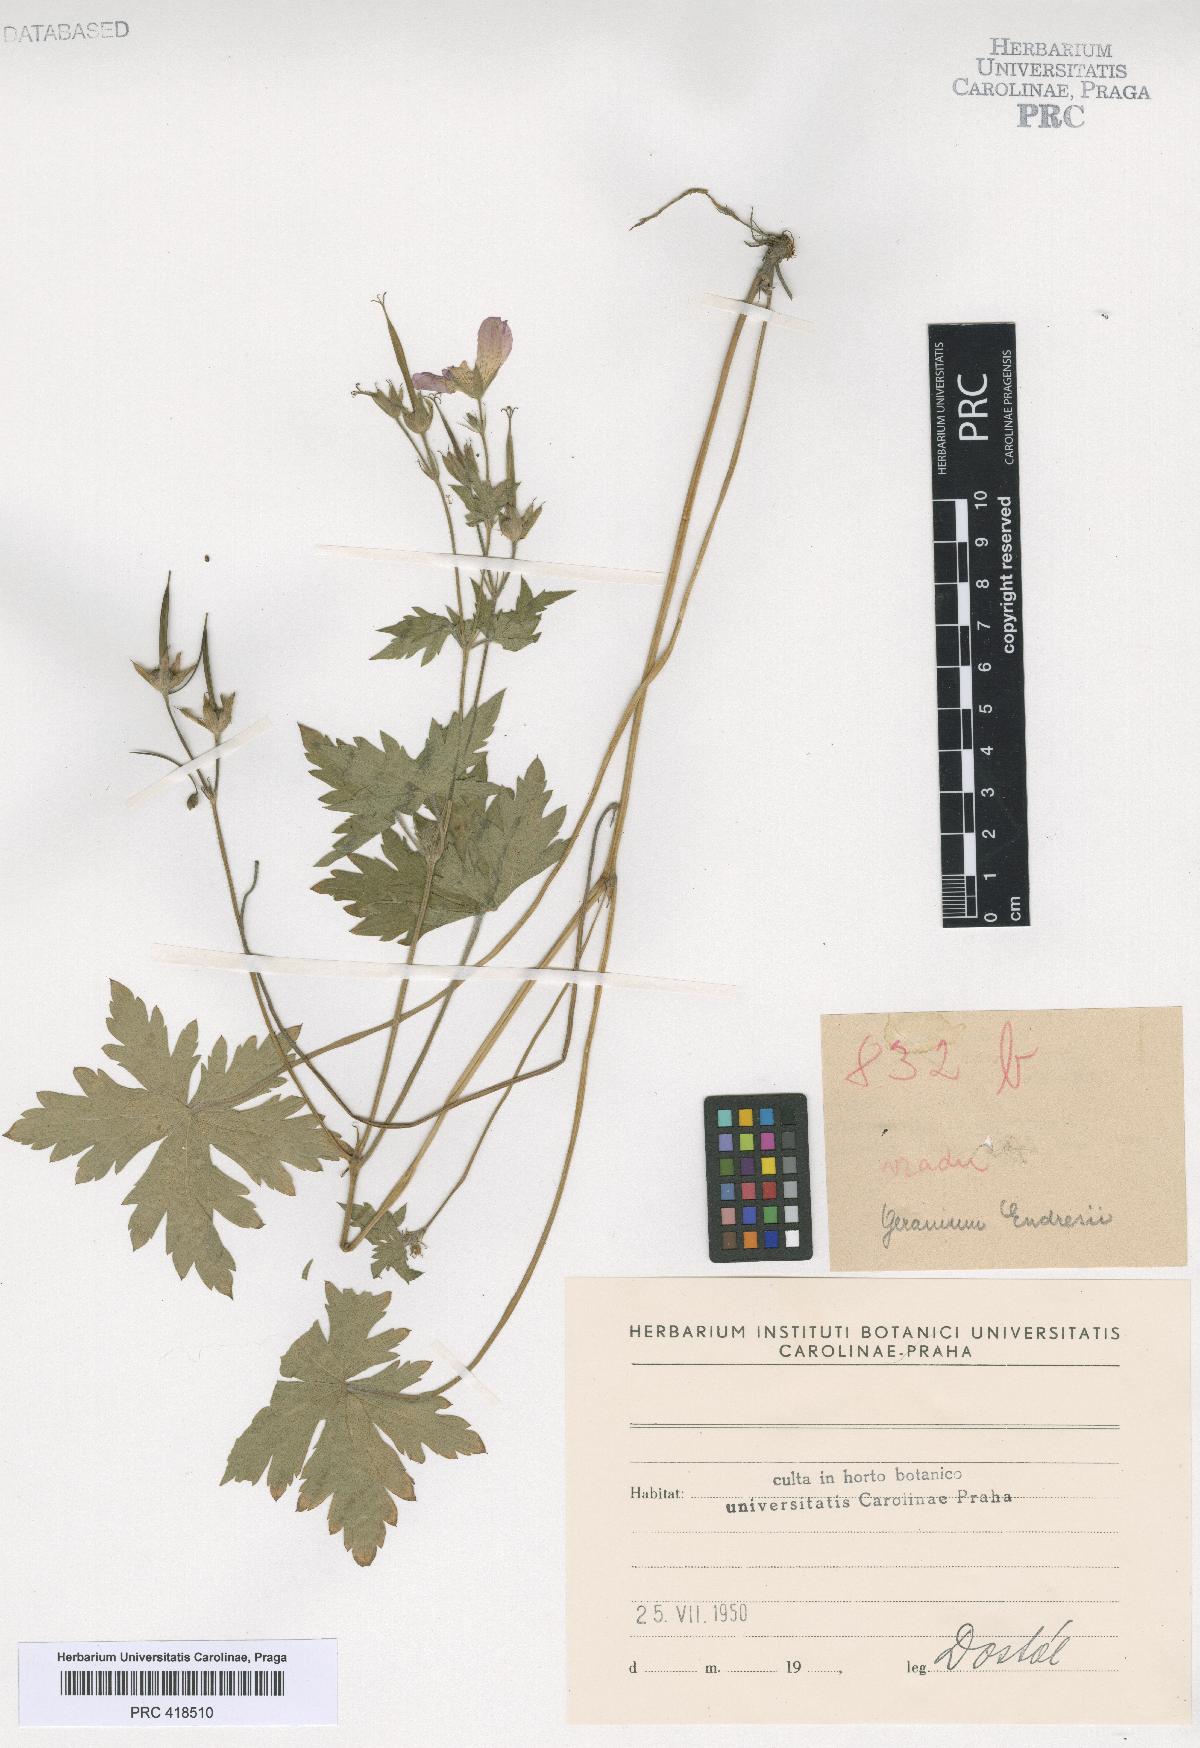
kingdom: Plantae
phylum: Tracheophyta
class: Magnoliopsida
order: Geraniales
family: Geraniaceae
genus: Geranium
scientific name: Geranium
